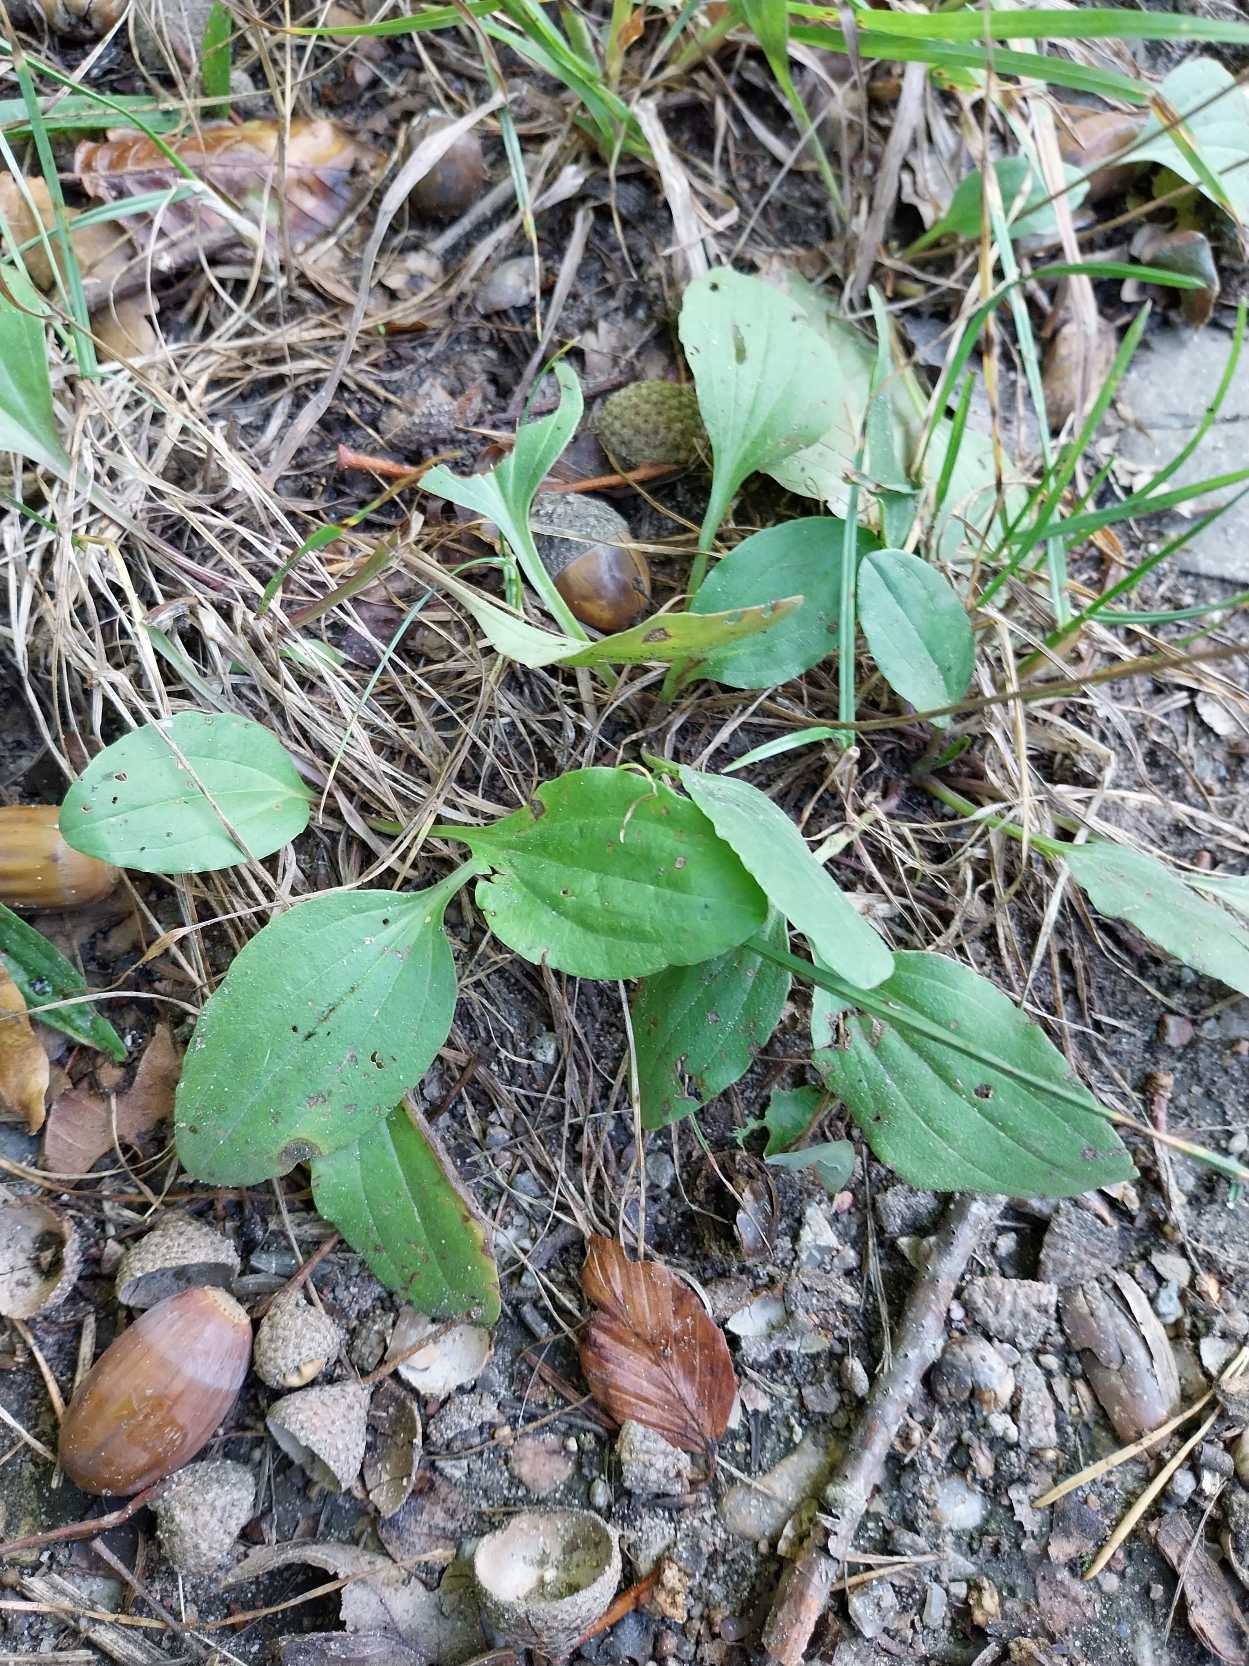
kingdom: Plantae
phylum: Tracheophyta
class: Magnoliopsida
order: Lamiales
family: Plantaginaceae
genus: Plantago
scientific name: Plantago major
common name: Glat vejbred
